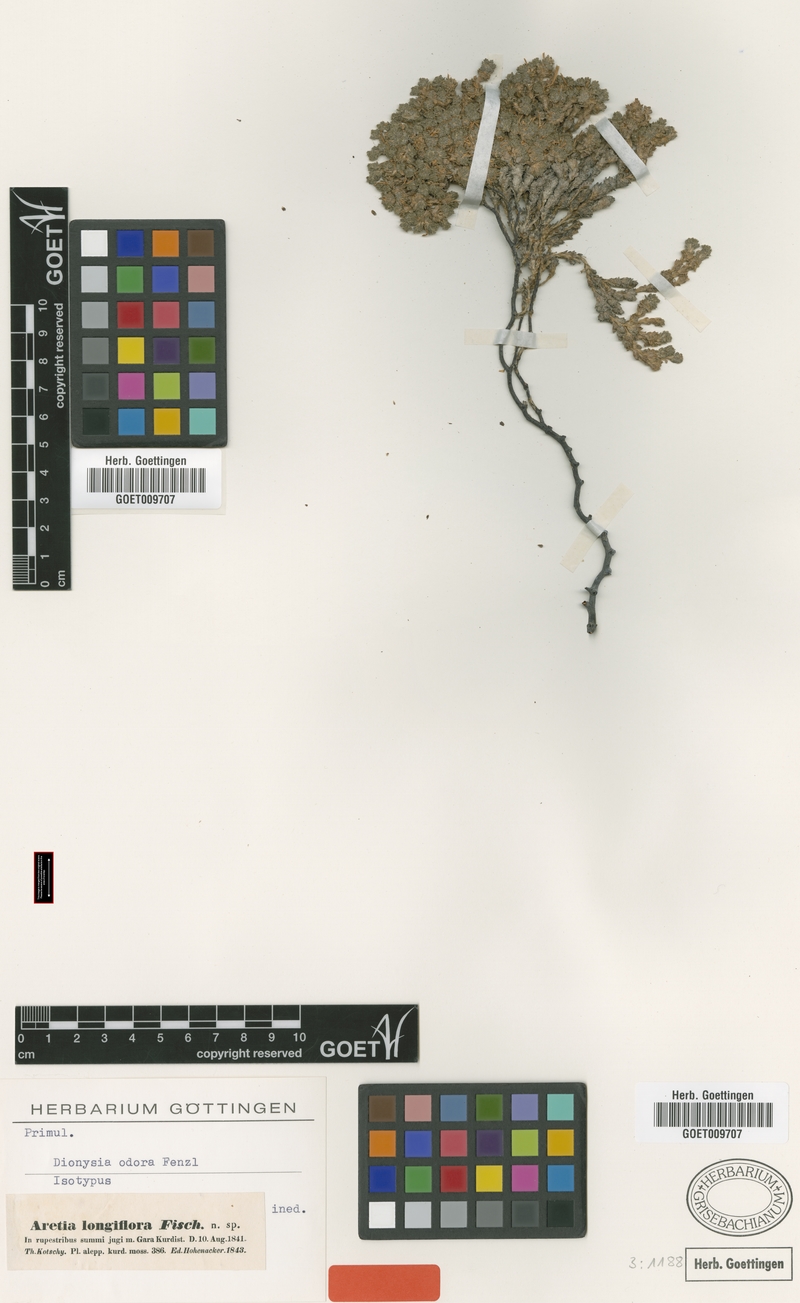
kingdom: Plantae
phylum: Tracheophyta
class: Magnoliopsida
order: Ericales
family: Primulaceae
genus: Dionysia
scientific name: Dionysia odora
